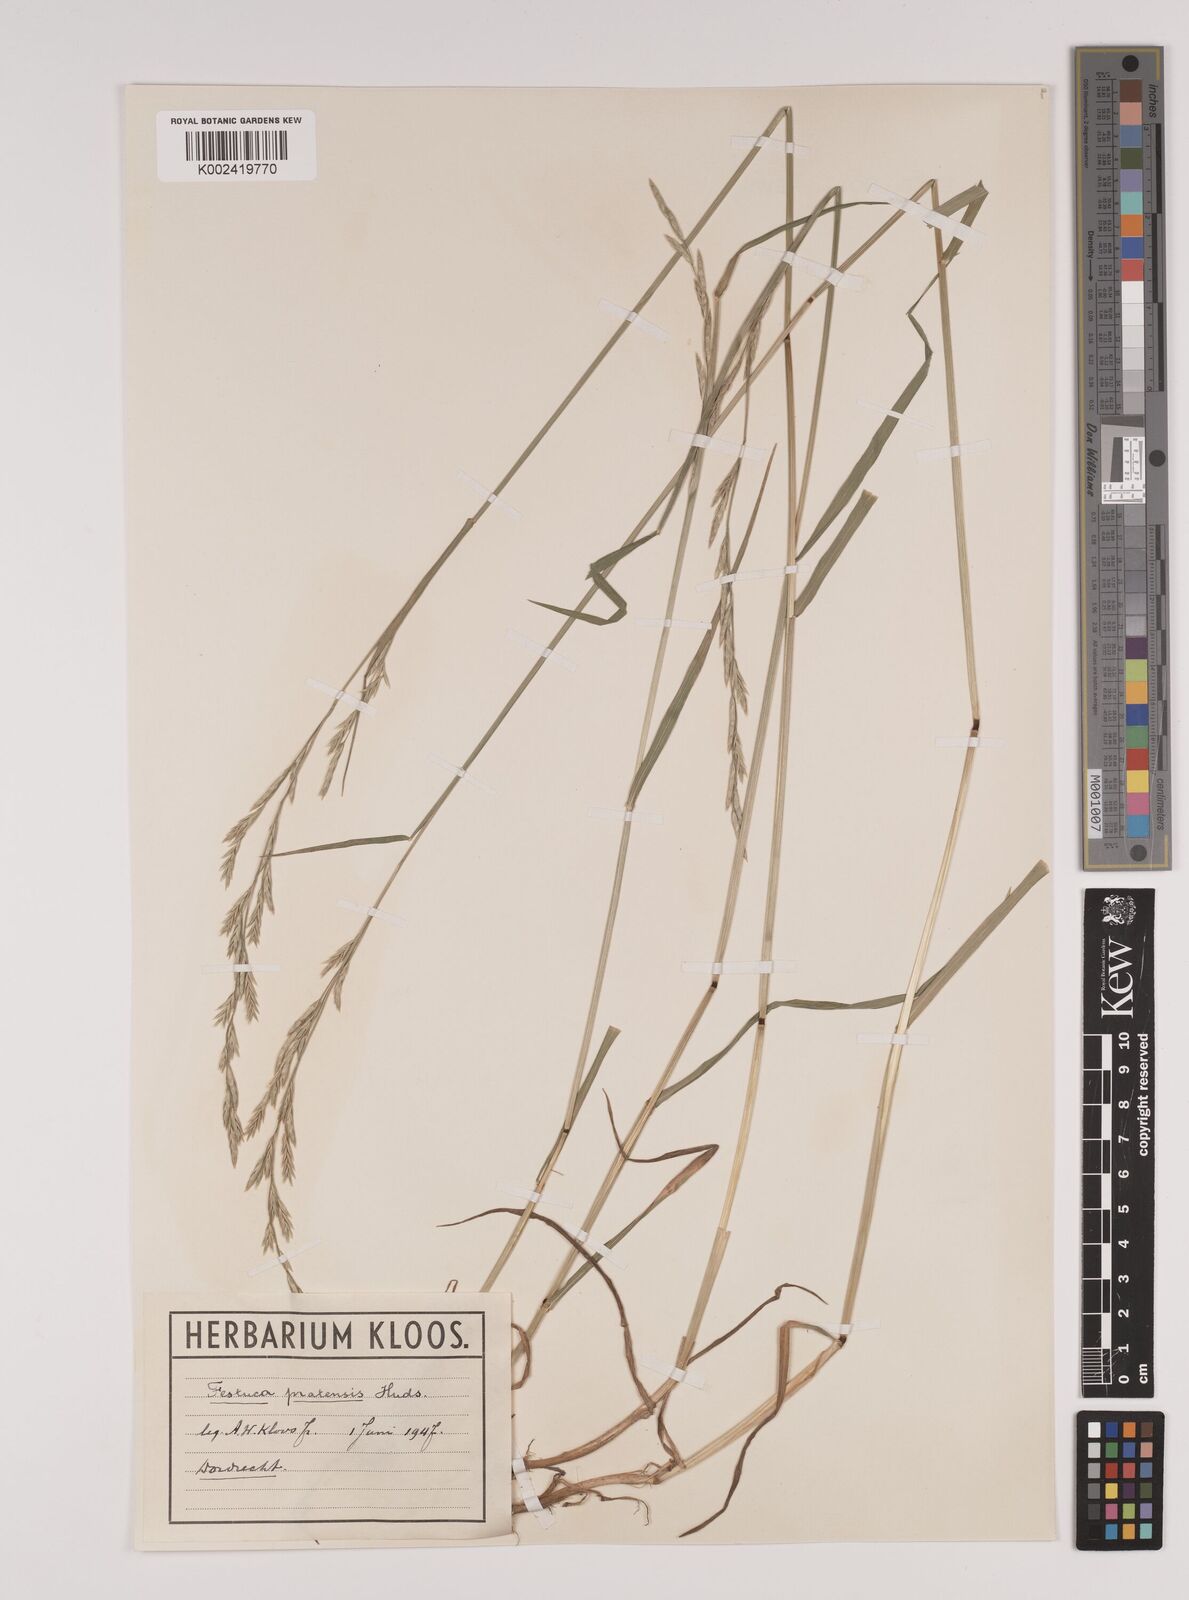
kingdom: Plantae
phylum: Tracheophyta
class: Liliopsida
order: Poales
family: Poaceae
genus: Lolium
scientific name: Lolium pratense
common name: Dover grass
